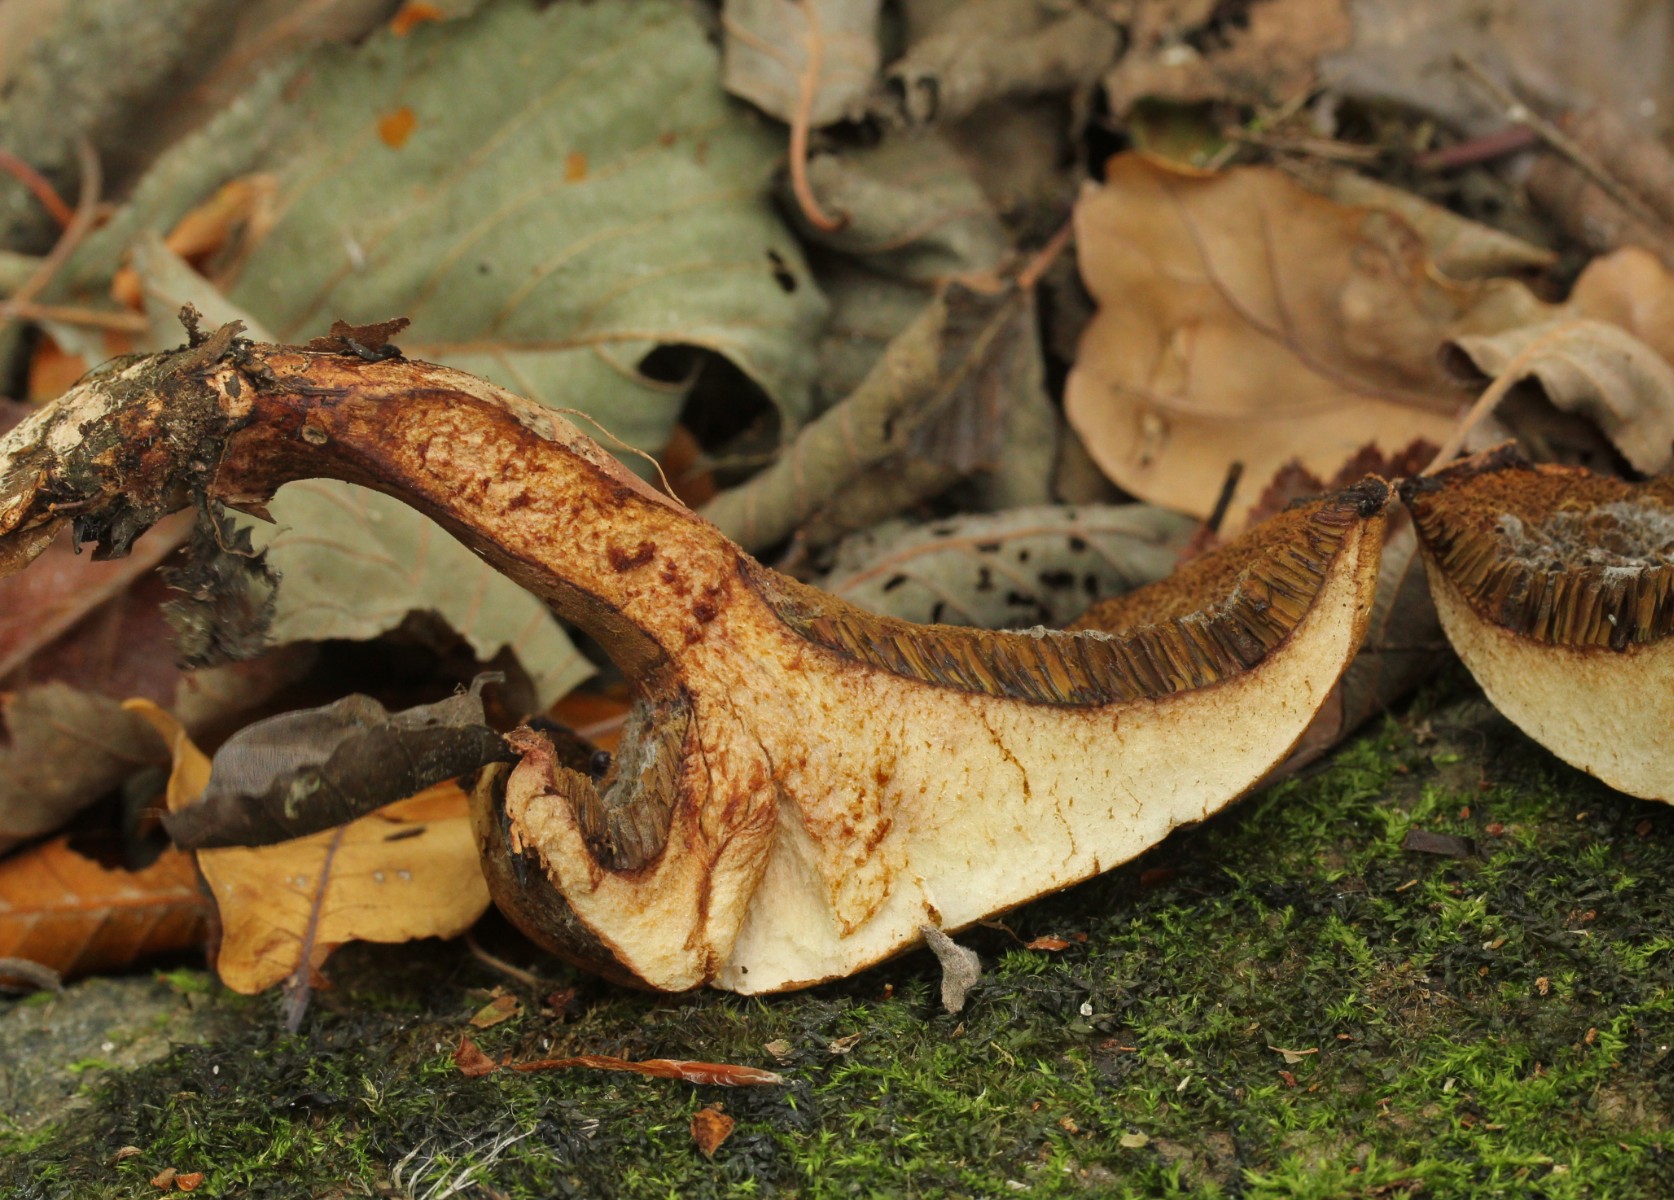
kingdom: Fungi
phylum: Basidiomycota
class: Agaricomycetes
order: Boletales
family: Paxillaceae
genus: Gyrodon
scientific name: Gyrodon lividus
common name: ellerørhat
